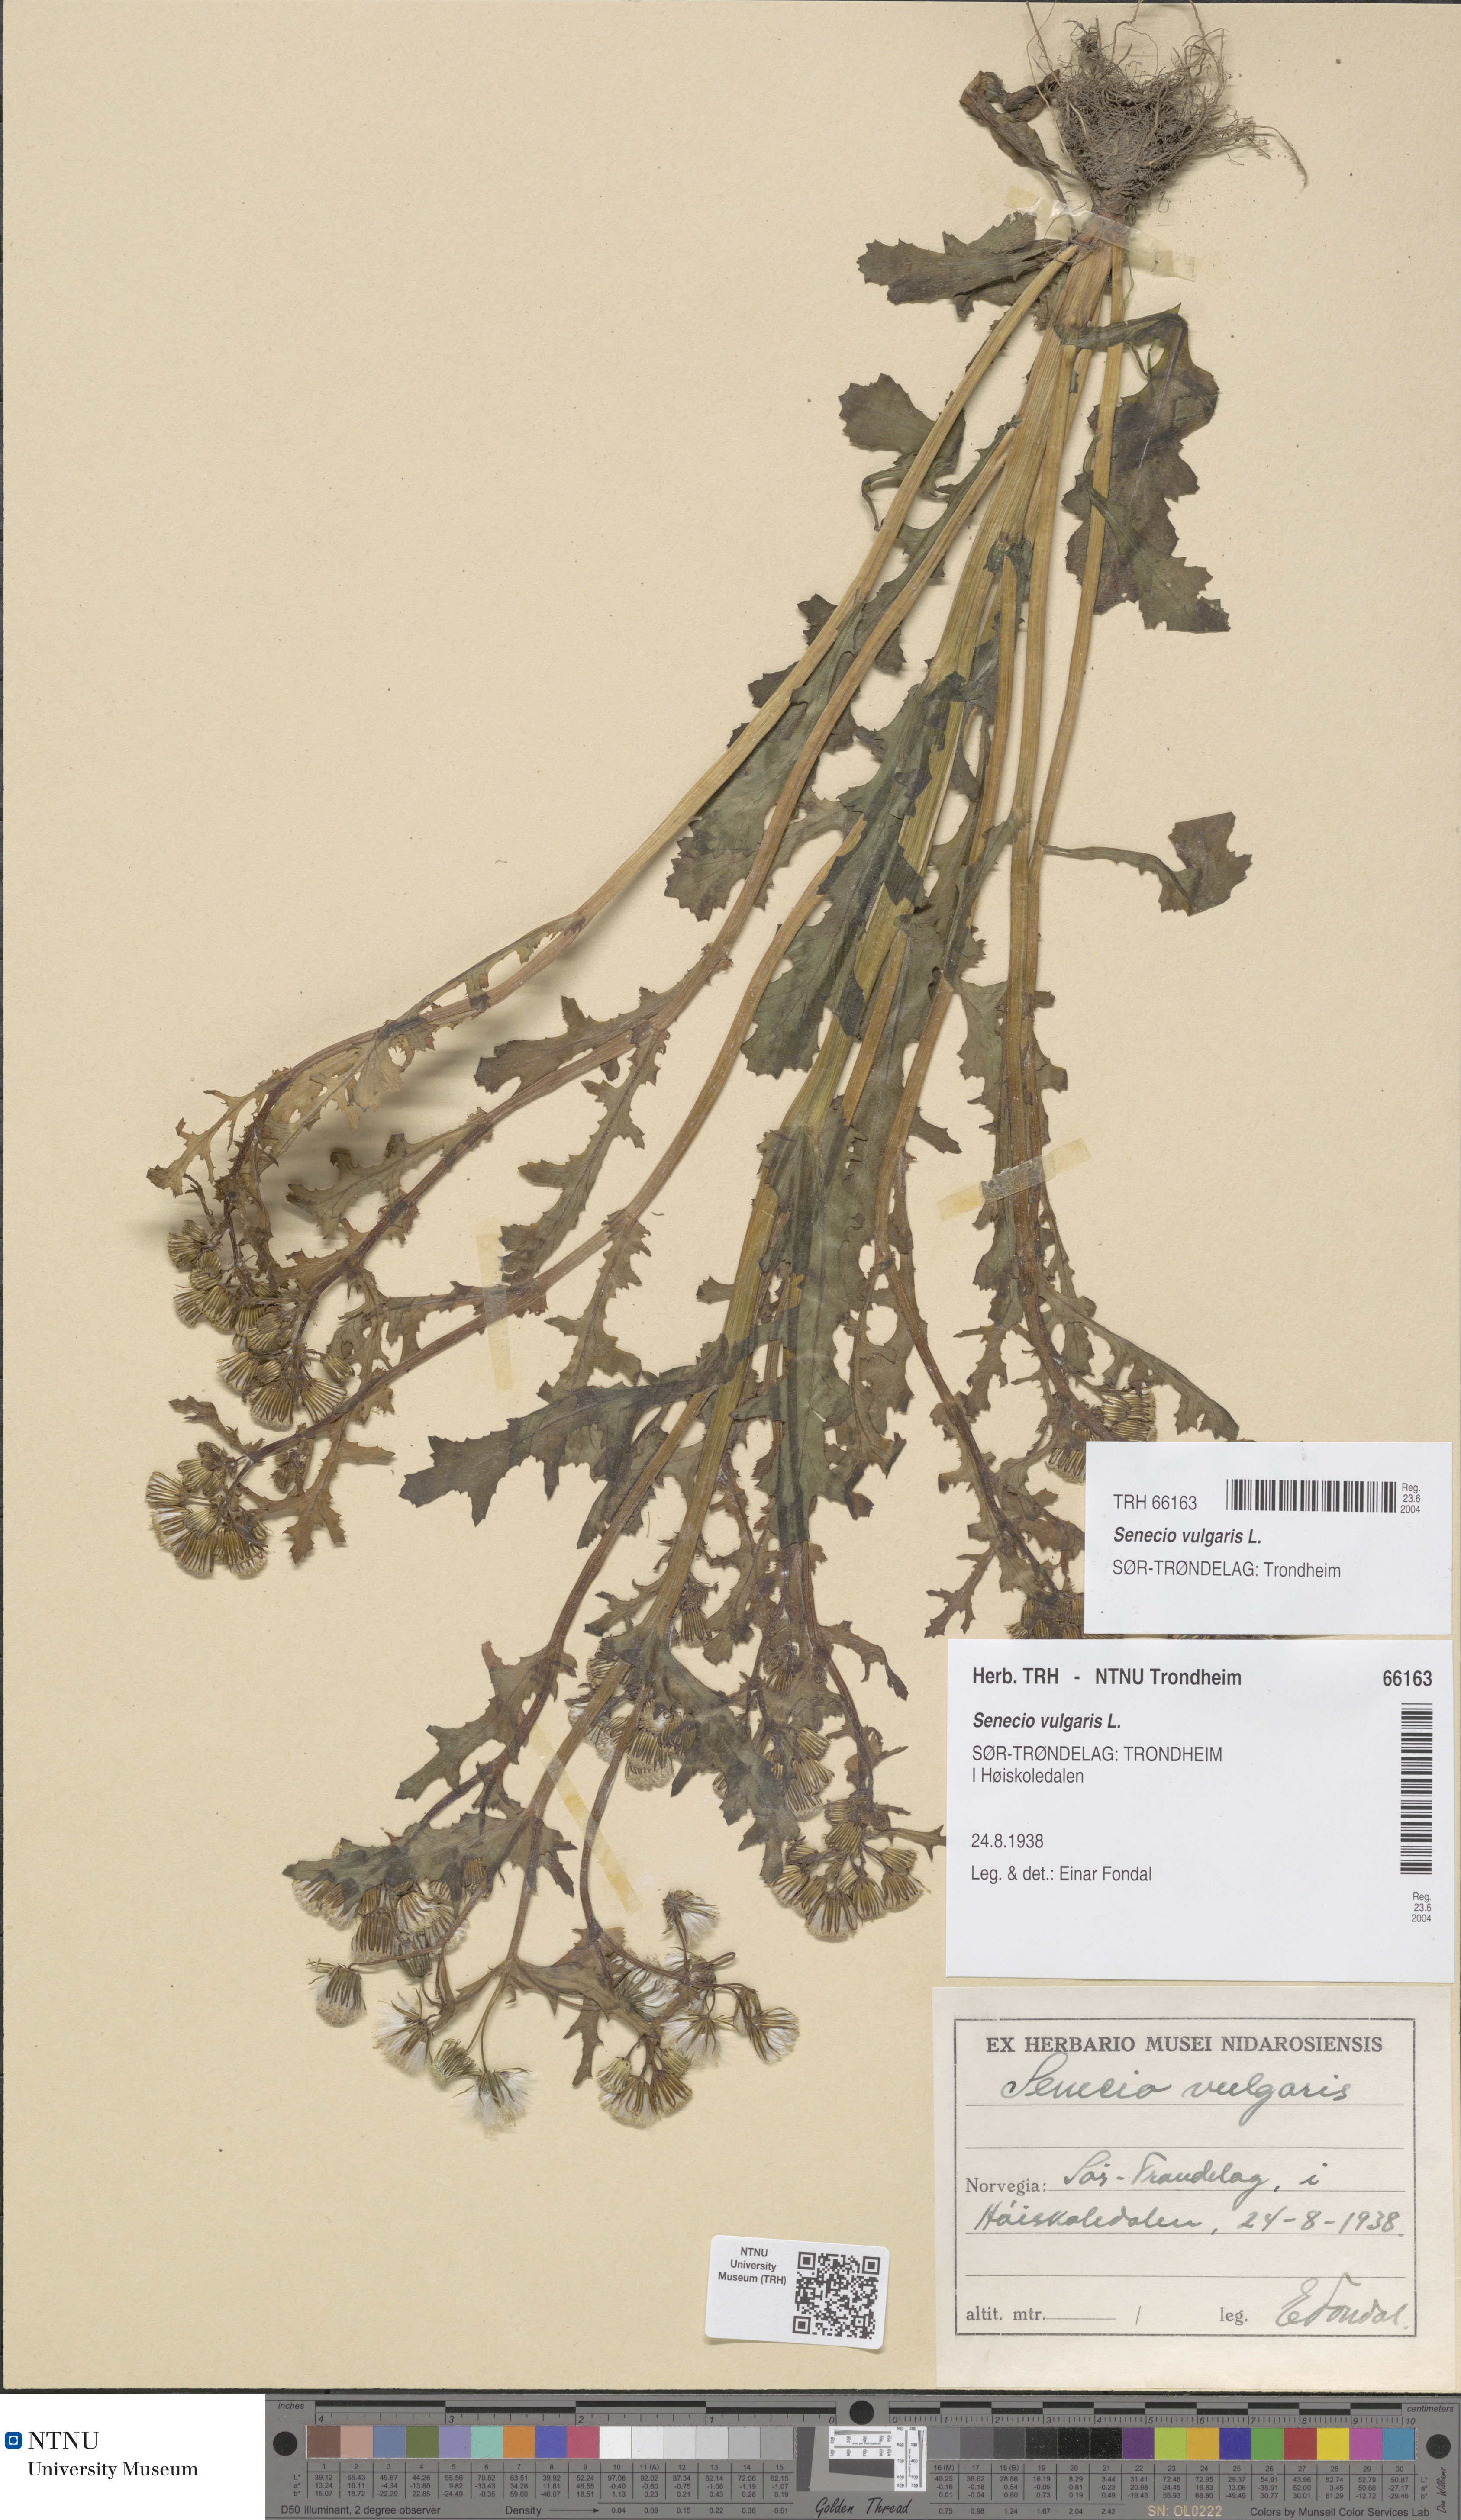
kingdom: Plantae
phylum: Tracheophyta
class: Magnoliopsida
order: Asterales
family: Asteraceae
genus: Senecio
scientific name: Senecio vulgaris
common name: Old-man-in-the-spring
